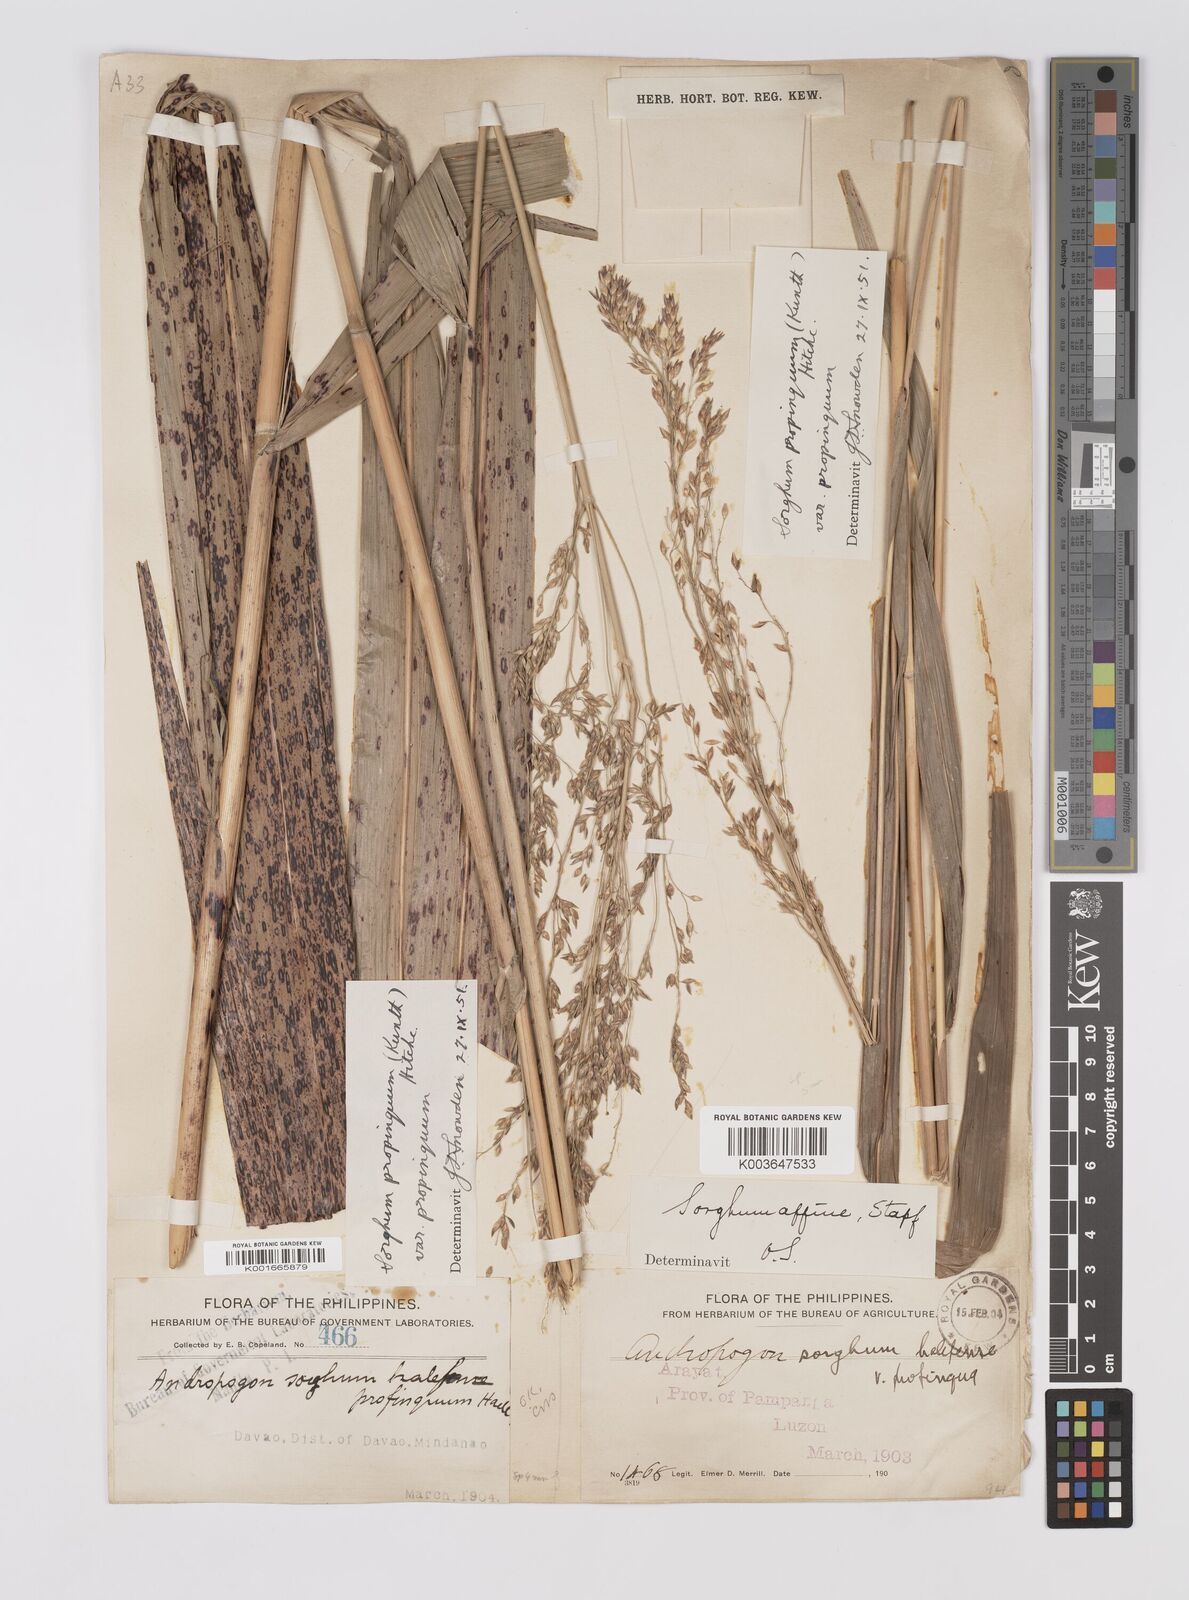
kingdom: Plantae
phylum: Tracheophyta
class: Liliopsida
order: Poales
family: Poaceae
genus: Sorghum
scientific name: Sorghum propinquum
